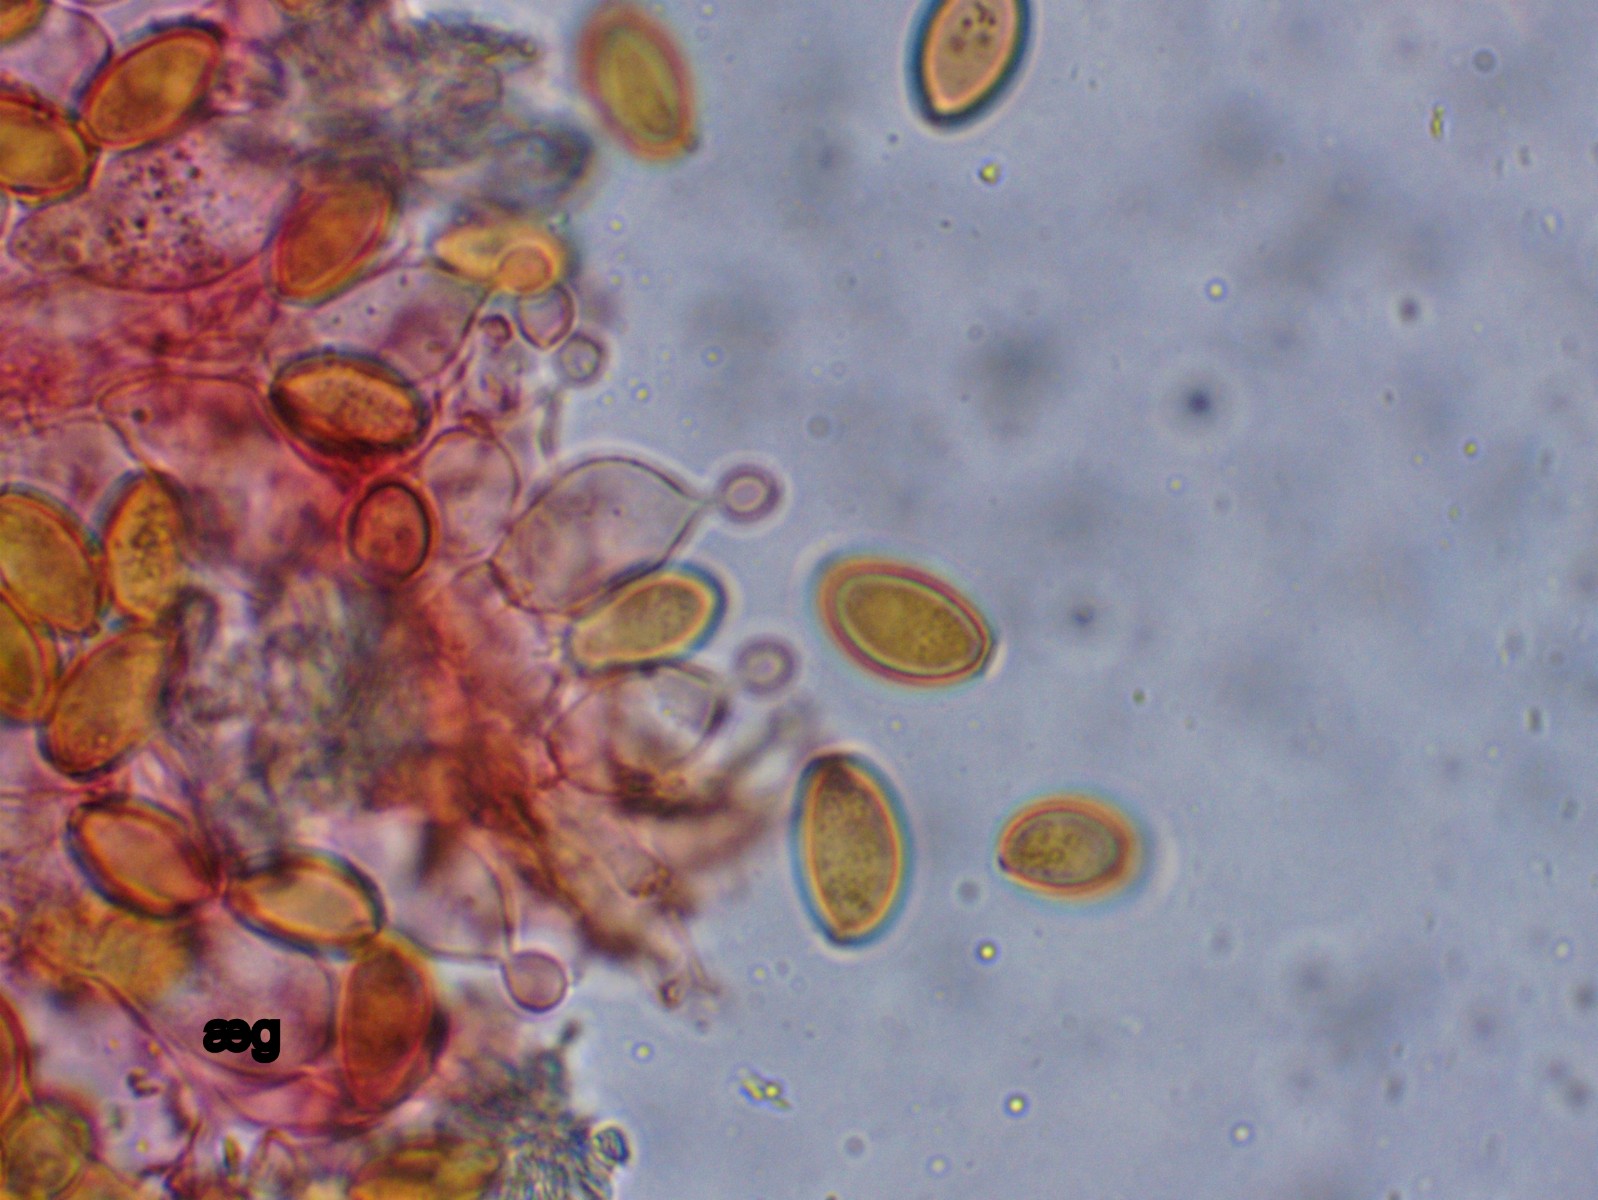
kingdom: Fungi
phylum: Basidiomycota
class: Agaricomycetes
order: Agaricales
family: Bolbitiaceae
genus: Conocybe
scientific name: Conocybe semiglobata
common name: halvkugleformet keglehat
